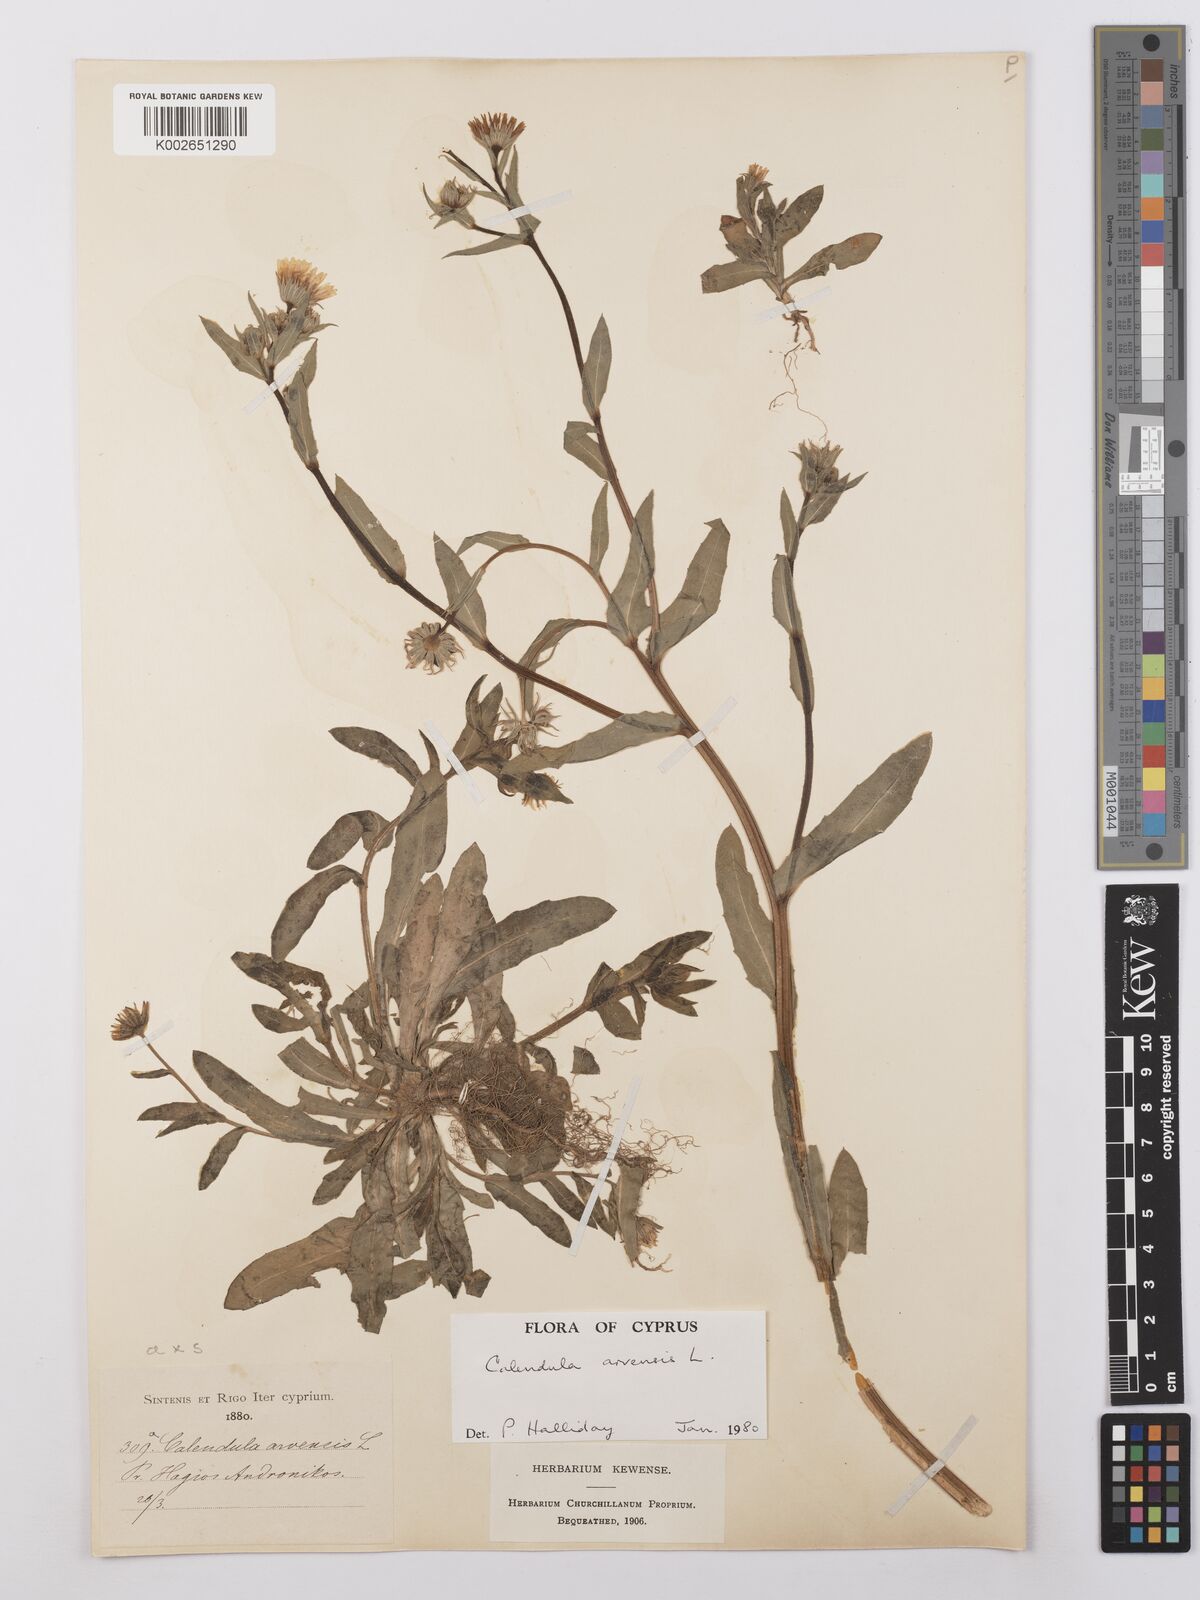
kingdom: Plantae
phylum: Tracheophyta
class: Magnoliopsida
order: Asterales
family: Asteraceae
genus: Calendula
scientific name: Calendula arvensis
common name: Field marigold
